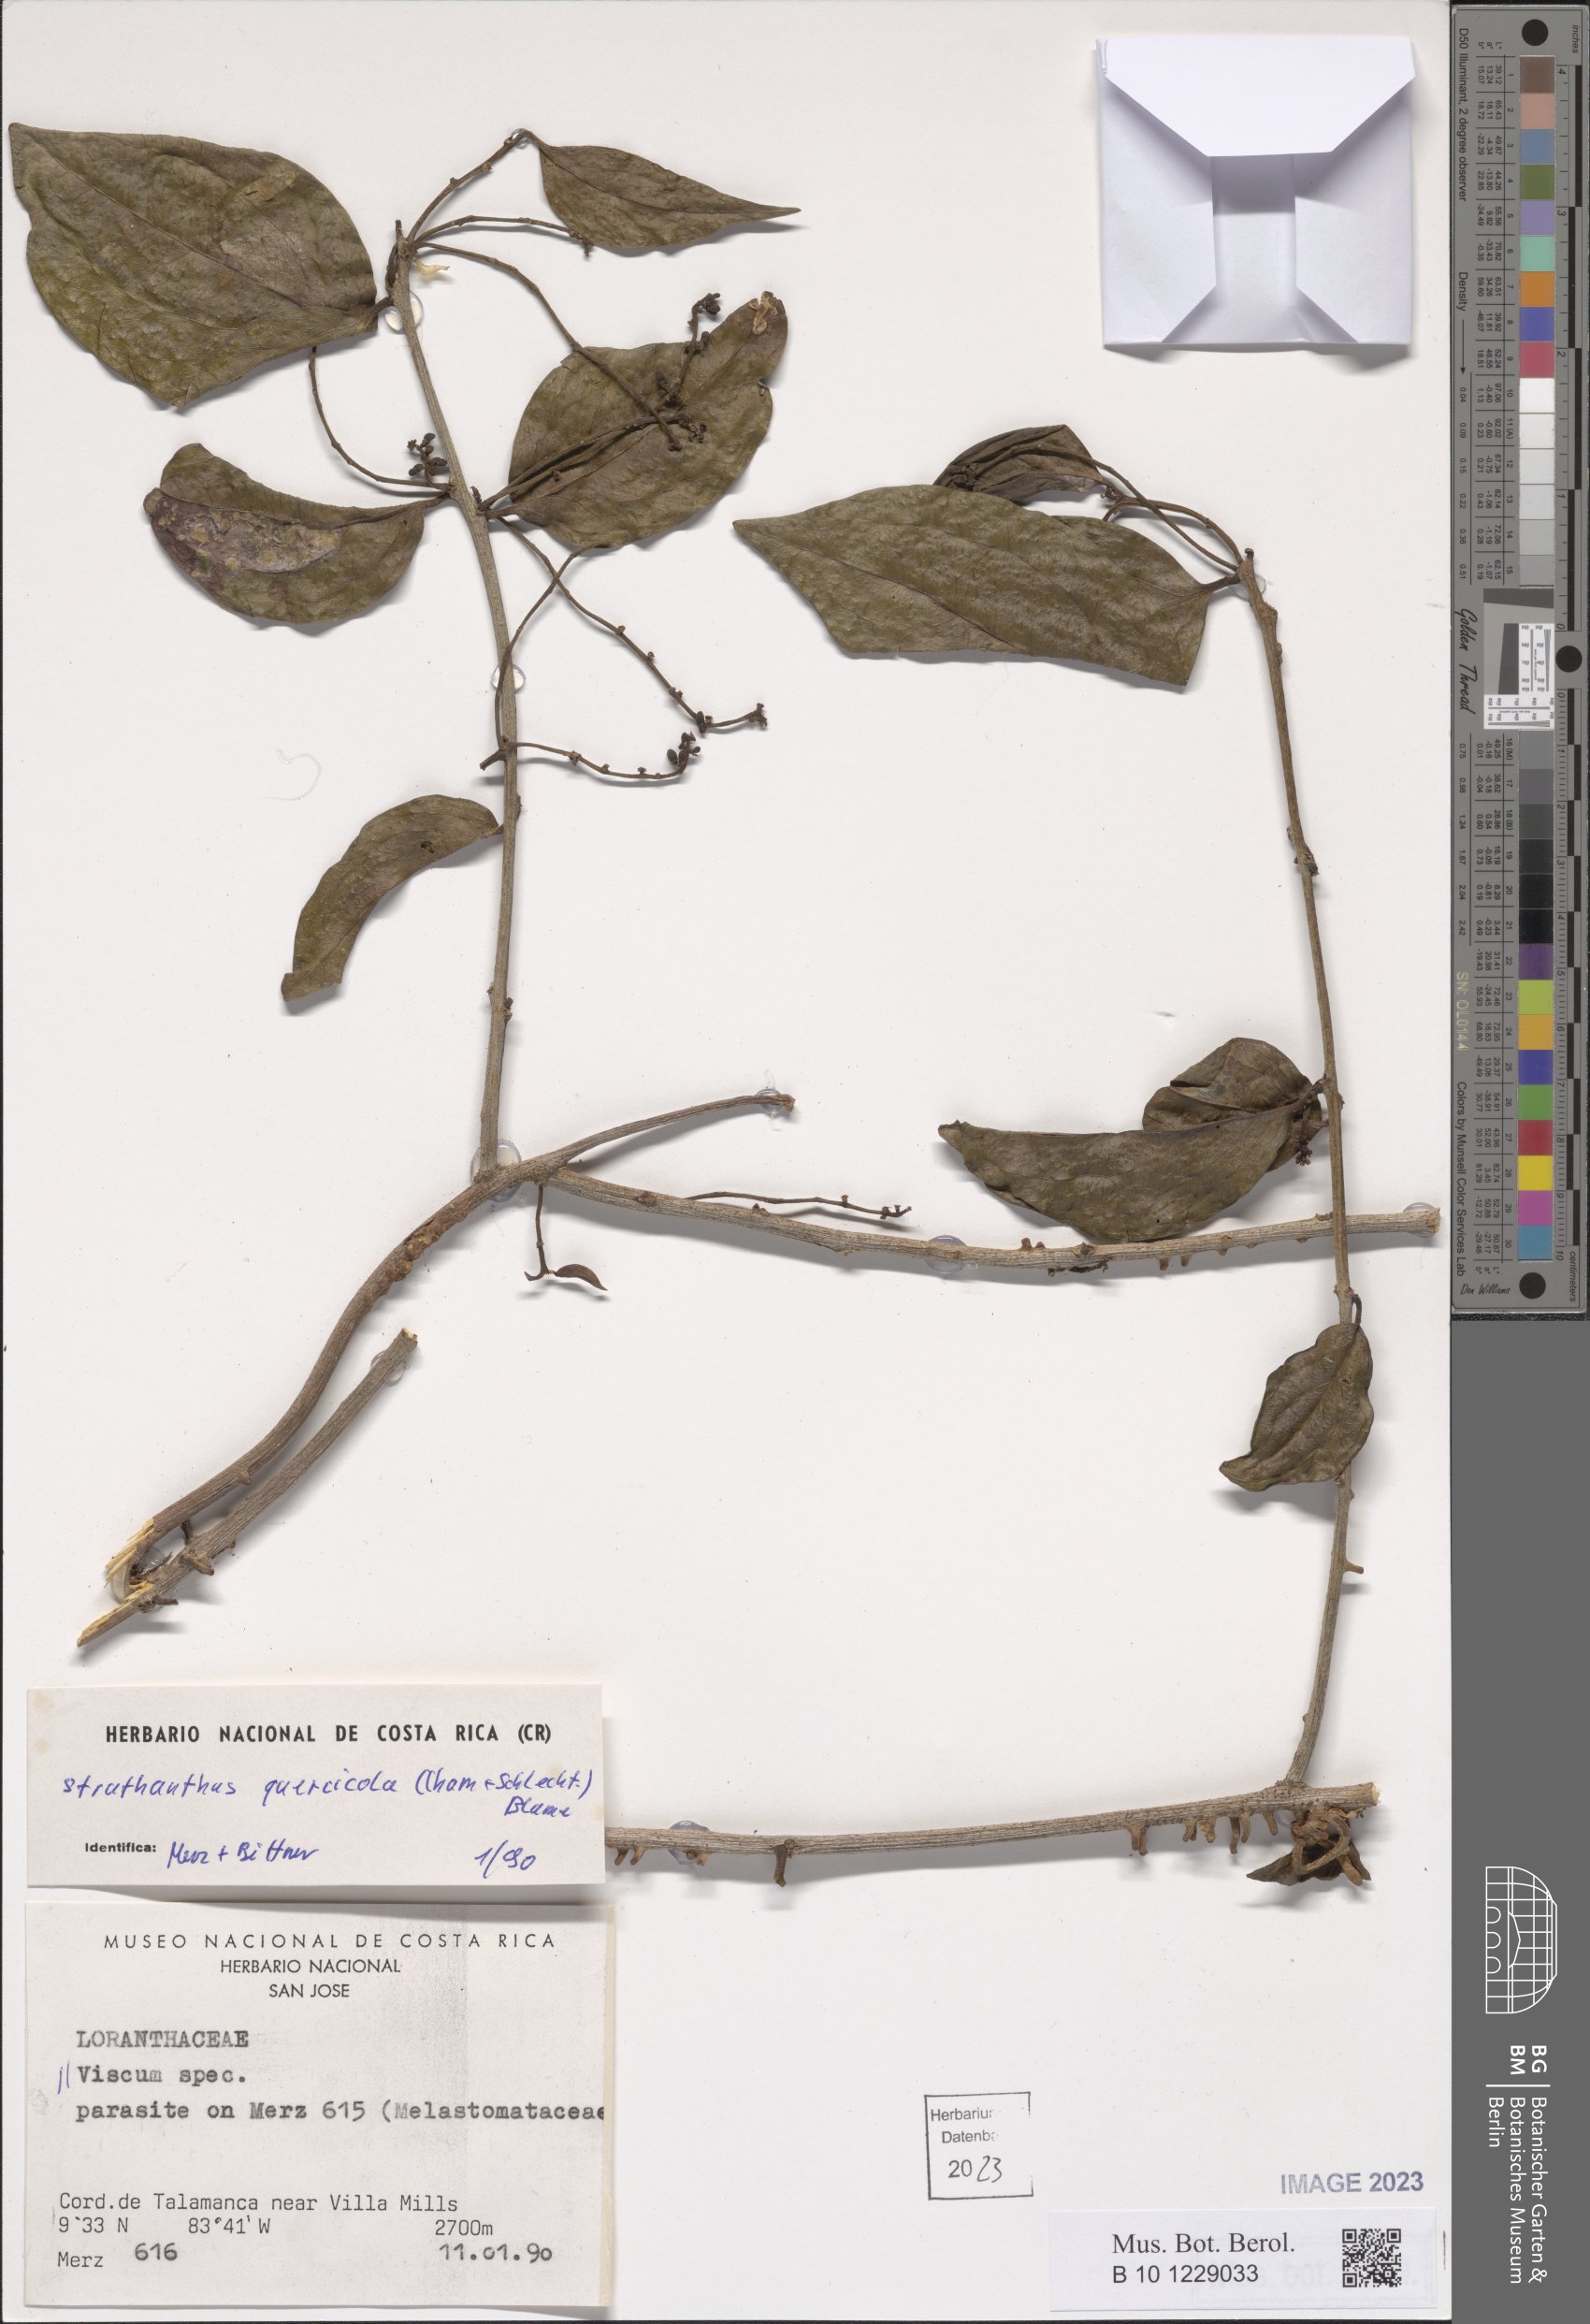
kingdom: Plantae
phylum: Tracheophyta
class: Magnoliopsida
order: Santalales
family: Loranthaceae
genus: Struthanthus
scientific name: Struthanthus quercicola
